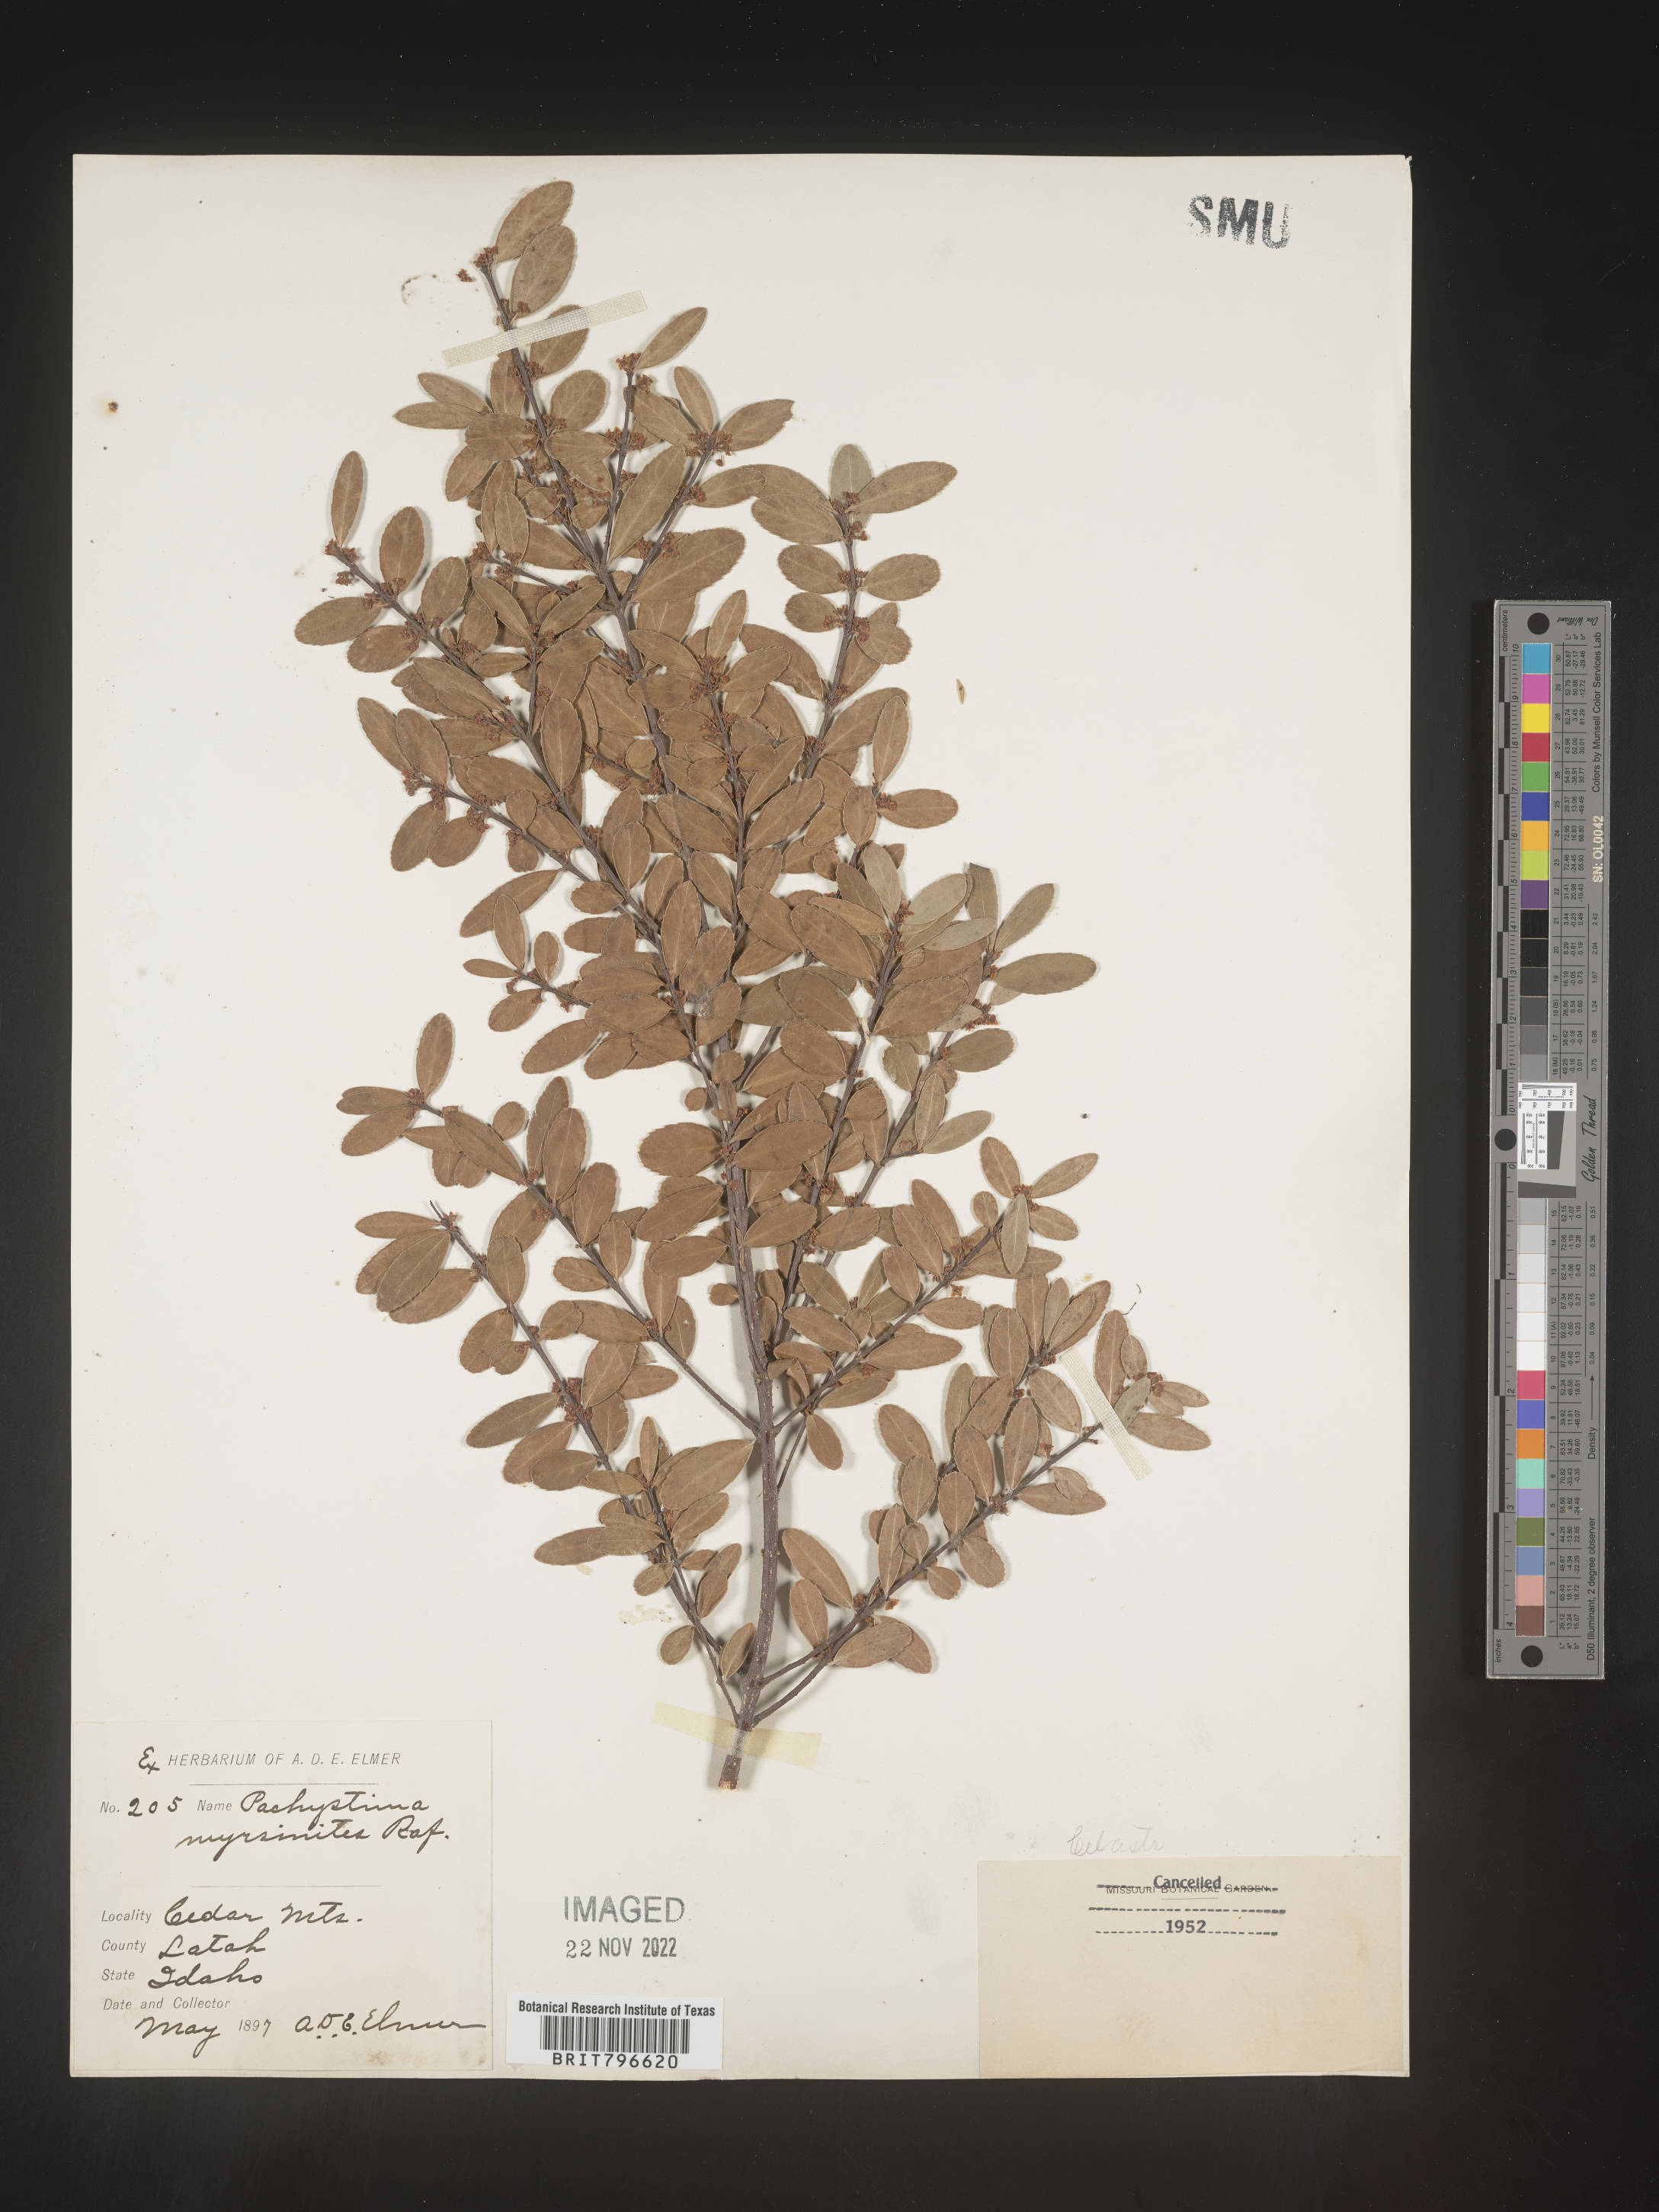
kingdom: Plantae
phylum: Tracheophyta
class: Magnoliopsida
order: Celastrales
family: Celastraceae
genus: Paxistima
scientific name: Paxistima myrsinites
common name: Mountain-lover
